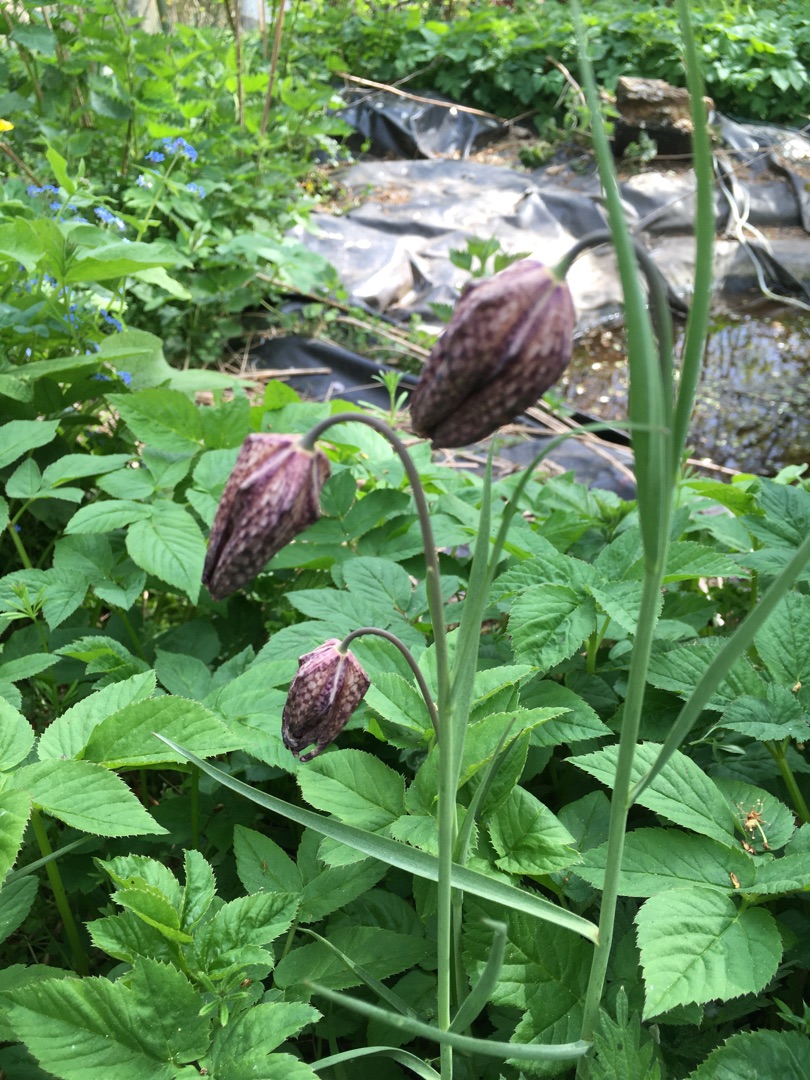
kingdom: Plantae
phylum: Tracheophyta
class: Liliopsida
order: Liliales
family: Liliaceae
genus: Fritillaria
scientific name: Fritillaria meleagris
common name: Vibeæg
